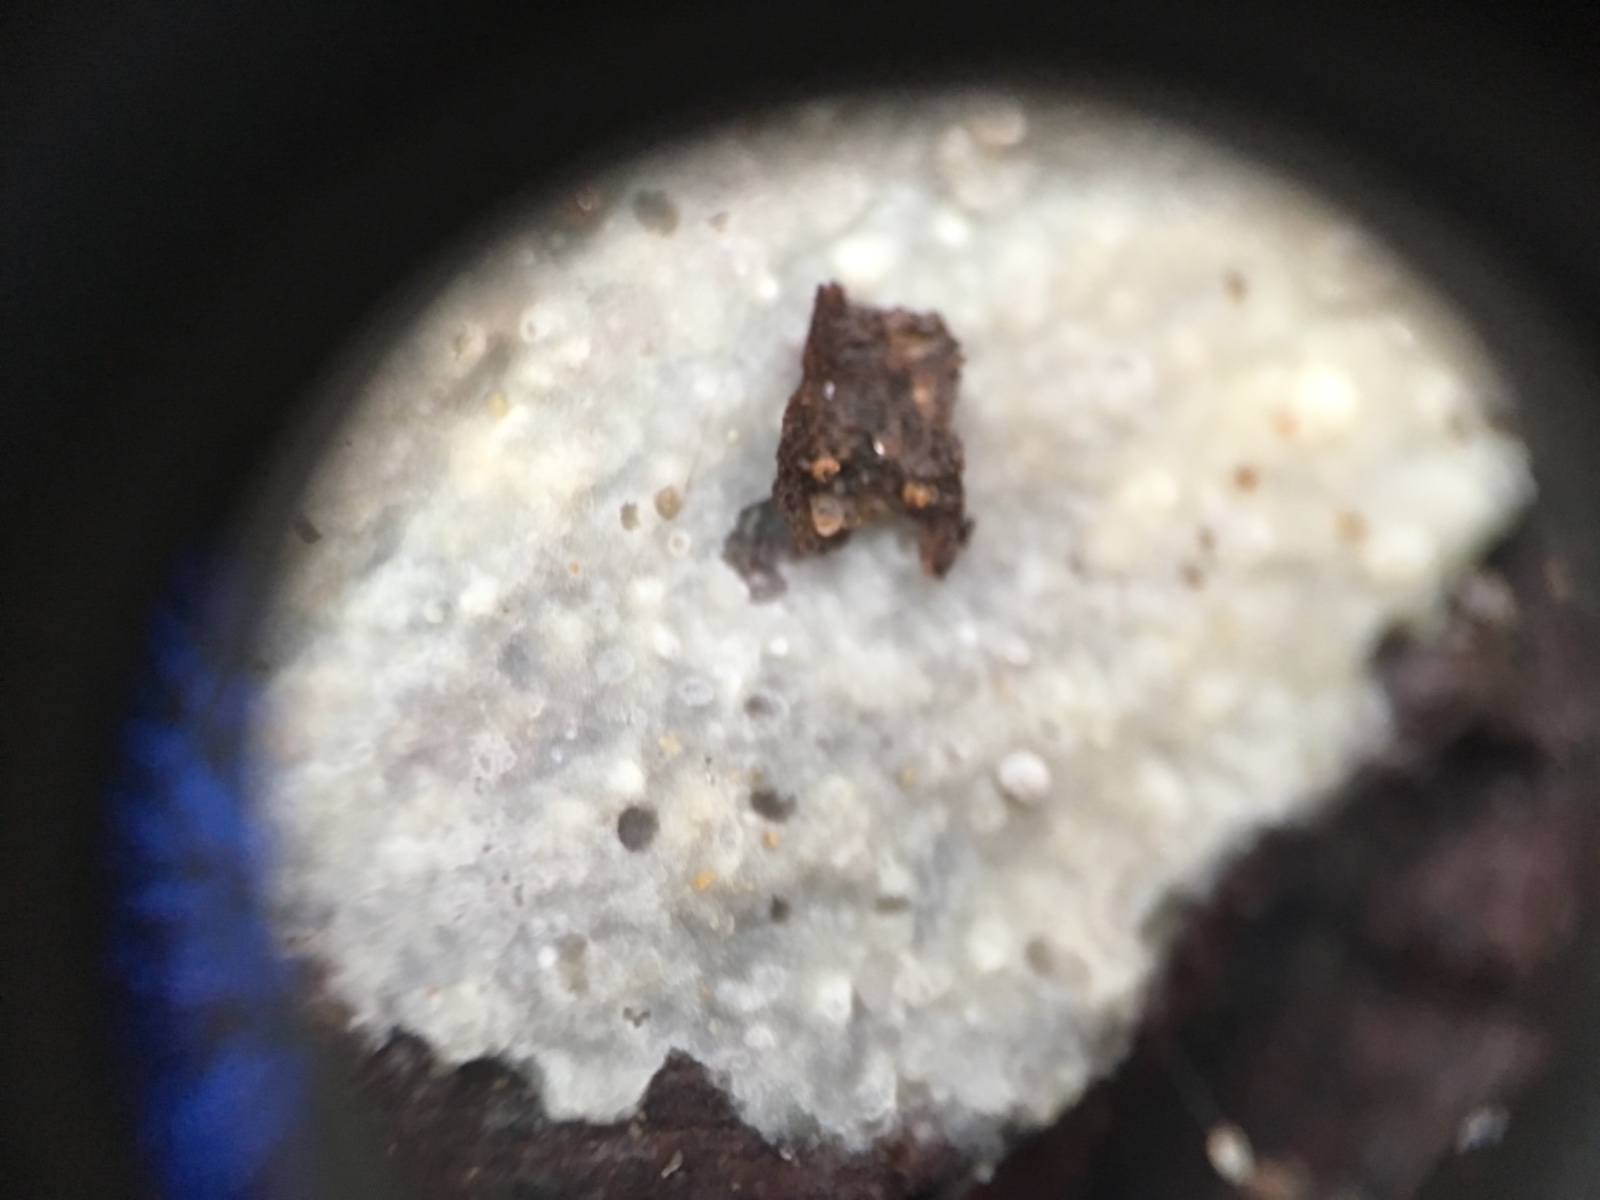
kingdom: Fungi
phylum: Basidiomycota
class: Agaricomycetes
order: Corticiales
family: Corticiaceae
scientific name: Corticiaceae
